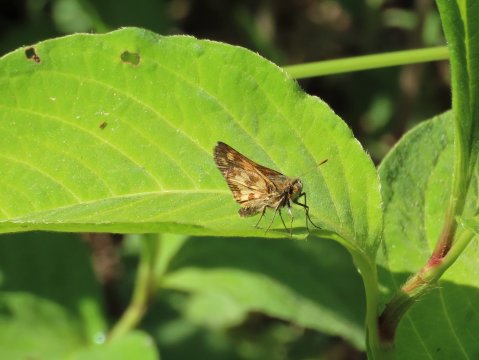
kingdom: Animalia
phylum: Arthropoda
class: Insecta
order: Lepidoptera
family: Hesperiidae
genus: Polites
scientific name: Polites coras
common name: Peck's Skipper
